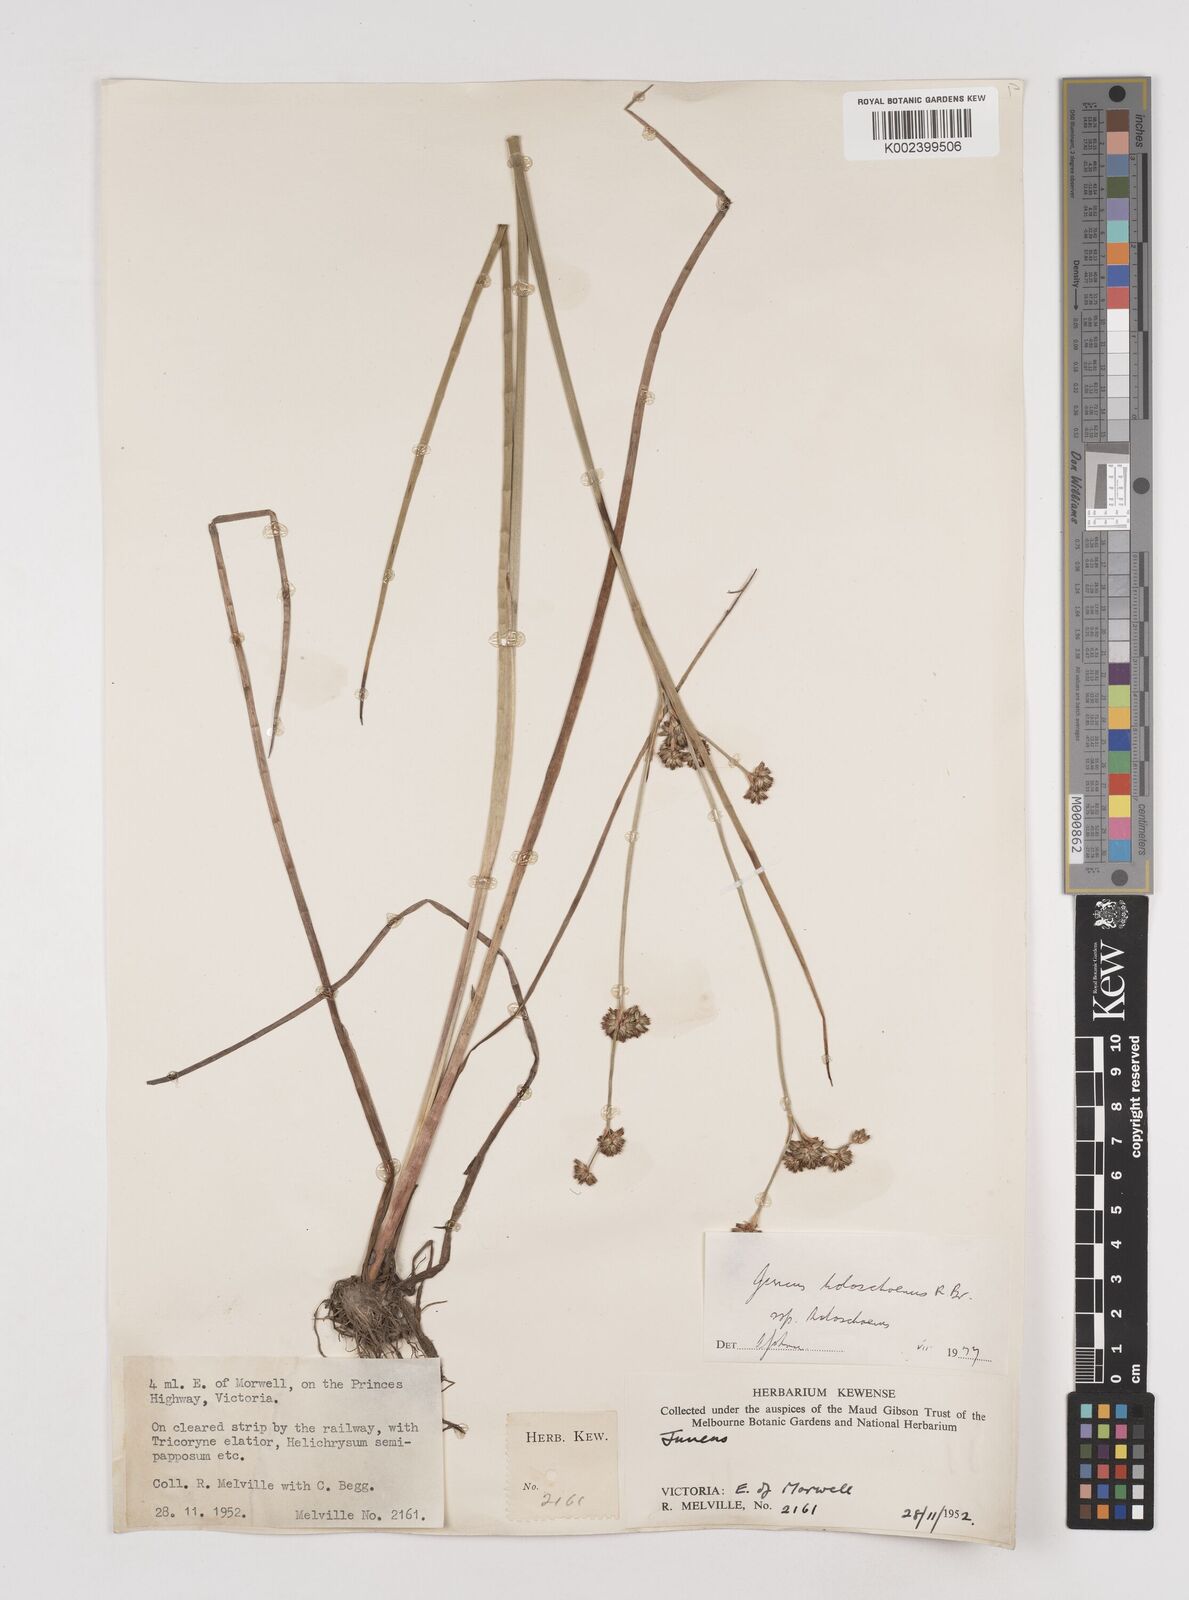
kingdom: Plantae
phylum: Tracheophyta
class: Liliopsida
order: Poales
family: Juncaceae
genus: Juncus
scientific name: Juncus holoschoenus
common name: Joint-leaf rush
